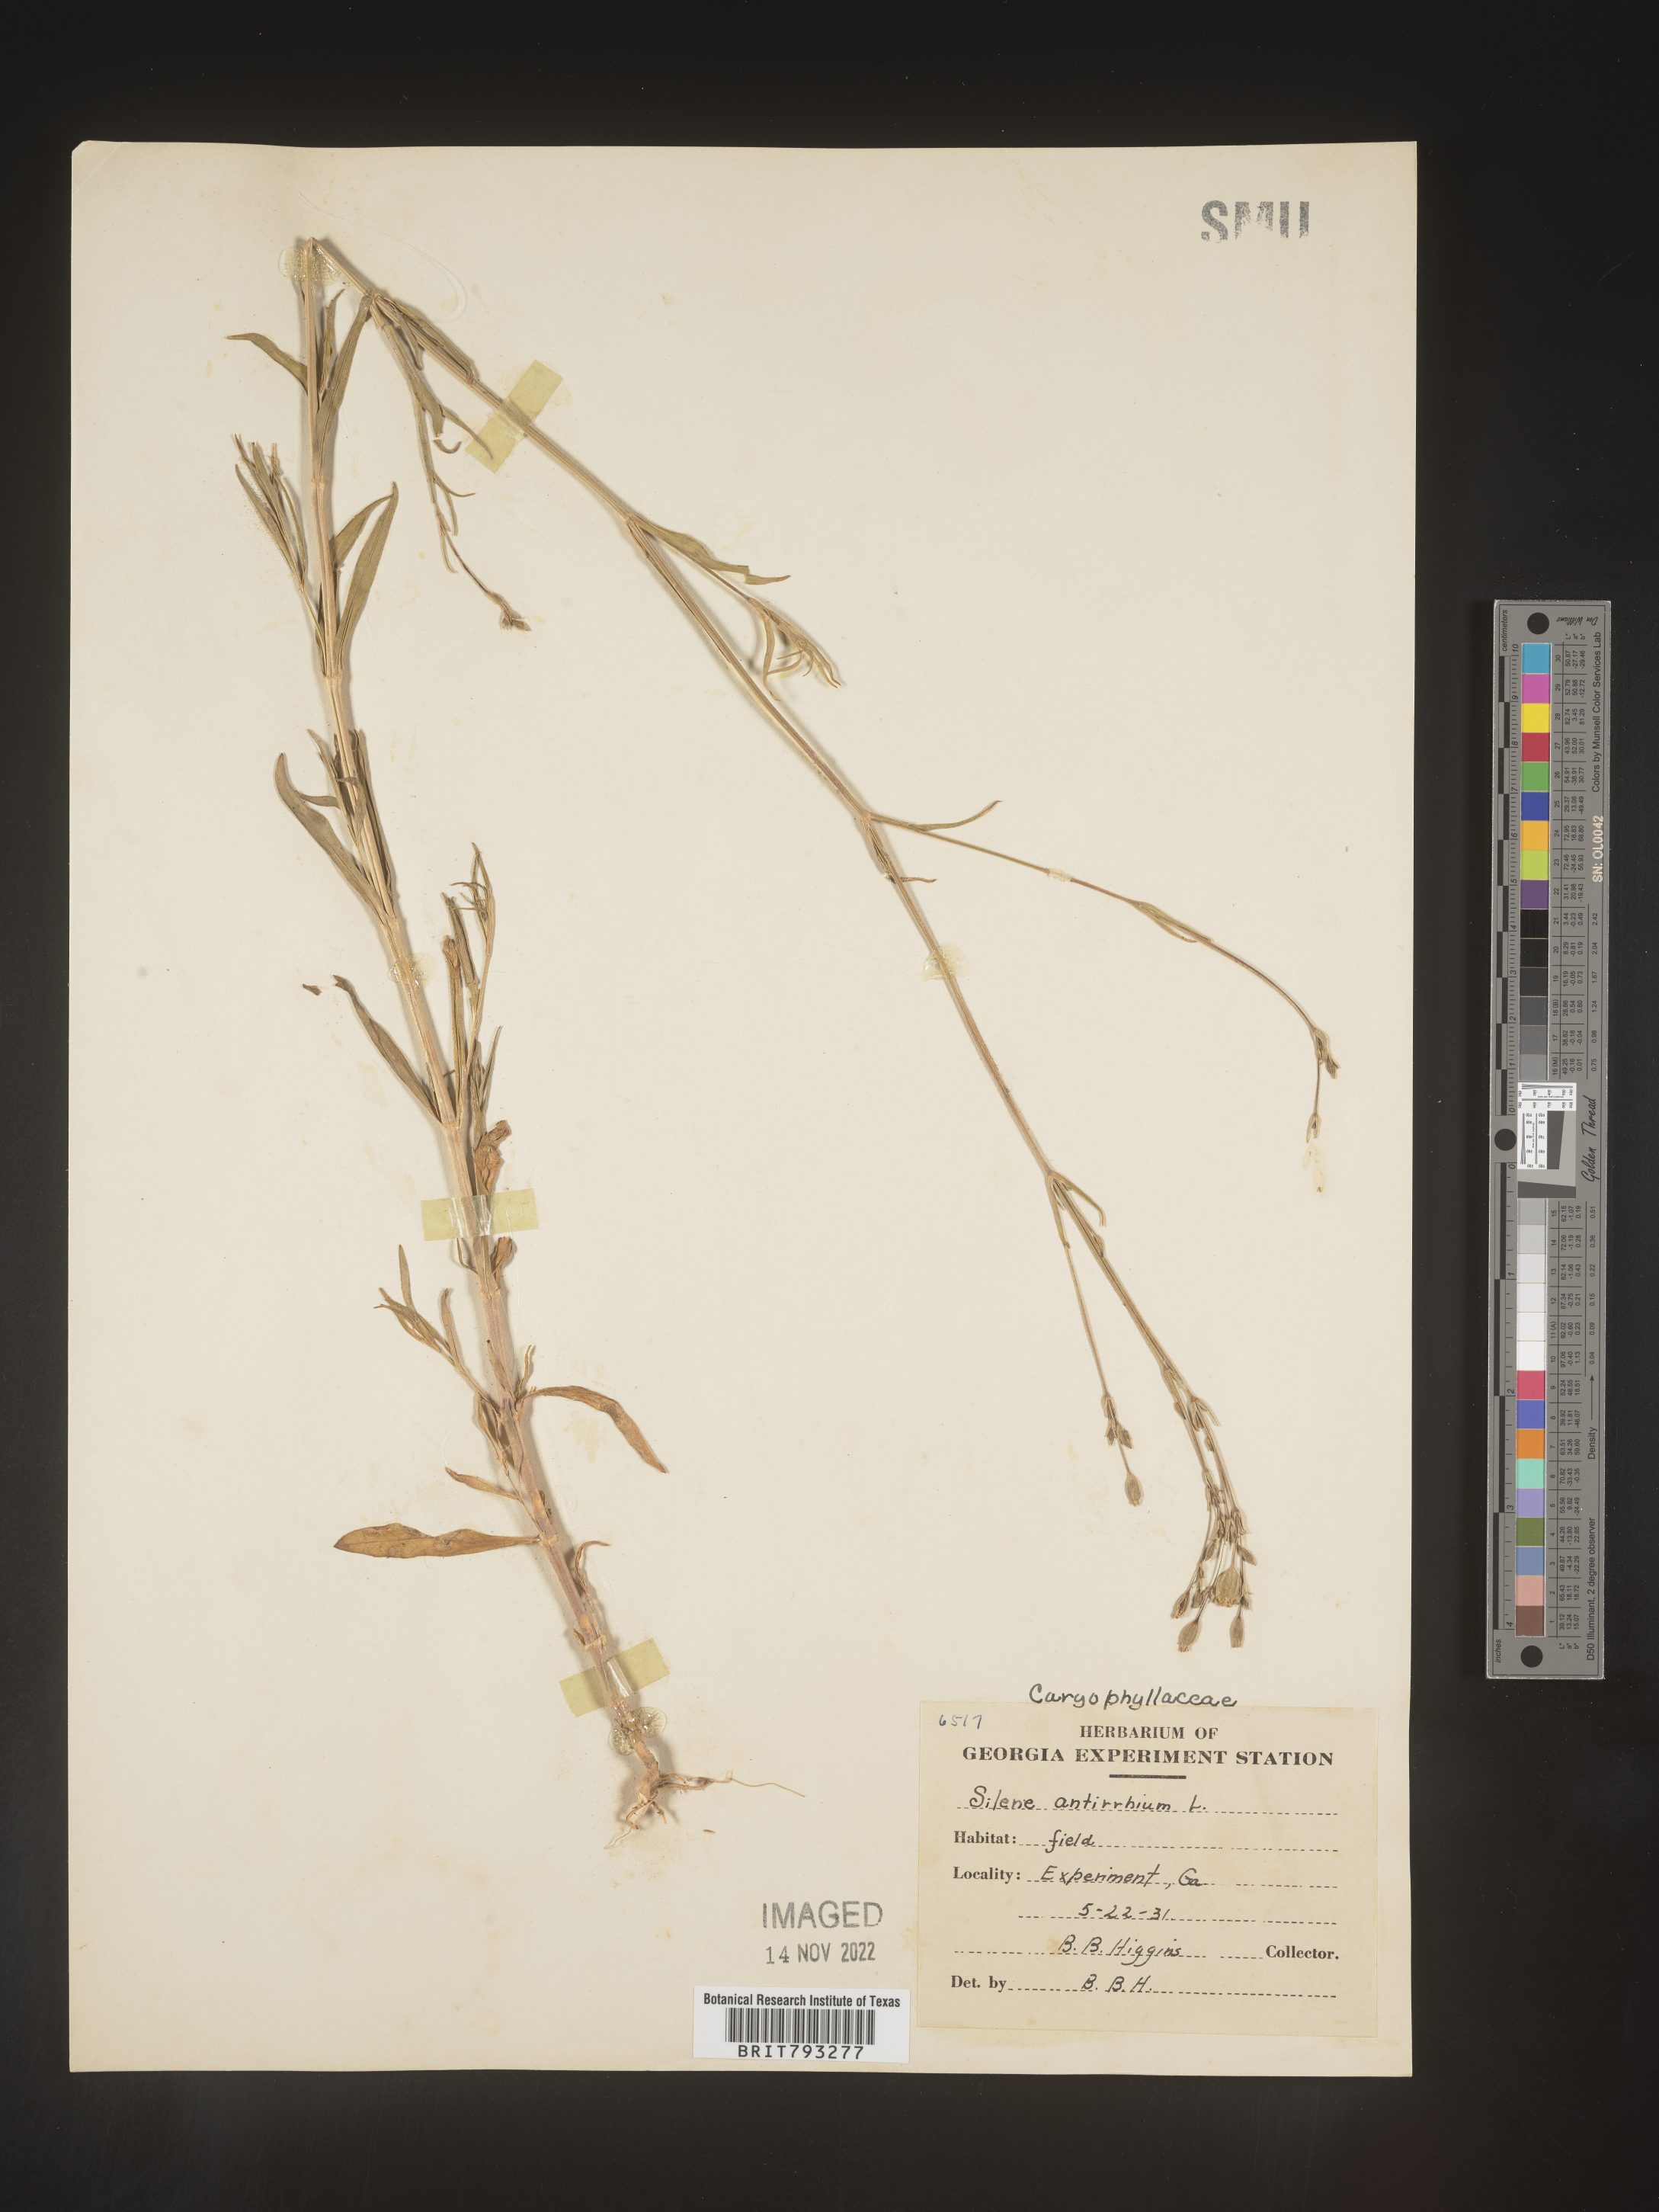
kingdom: Plantae
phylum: Tracheophyta
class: Magnoliopsida
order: Caryophyllales
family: Caryophyllaceae
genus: Silene
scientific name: Silene antirrhina
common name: Sleepy catchfly
